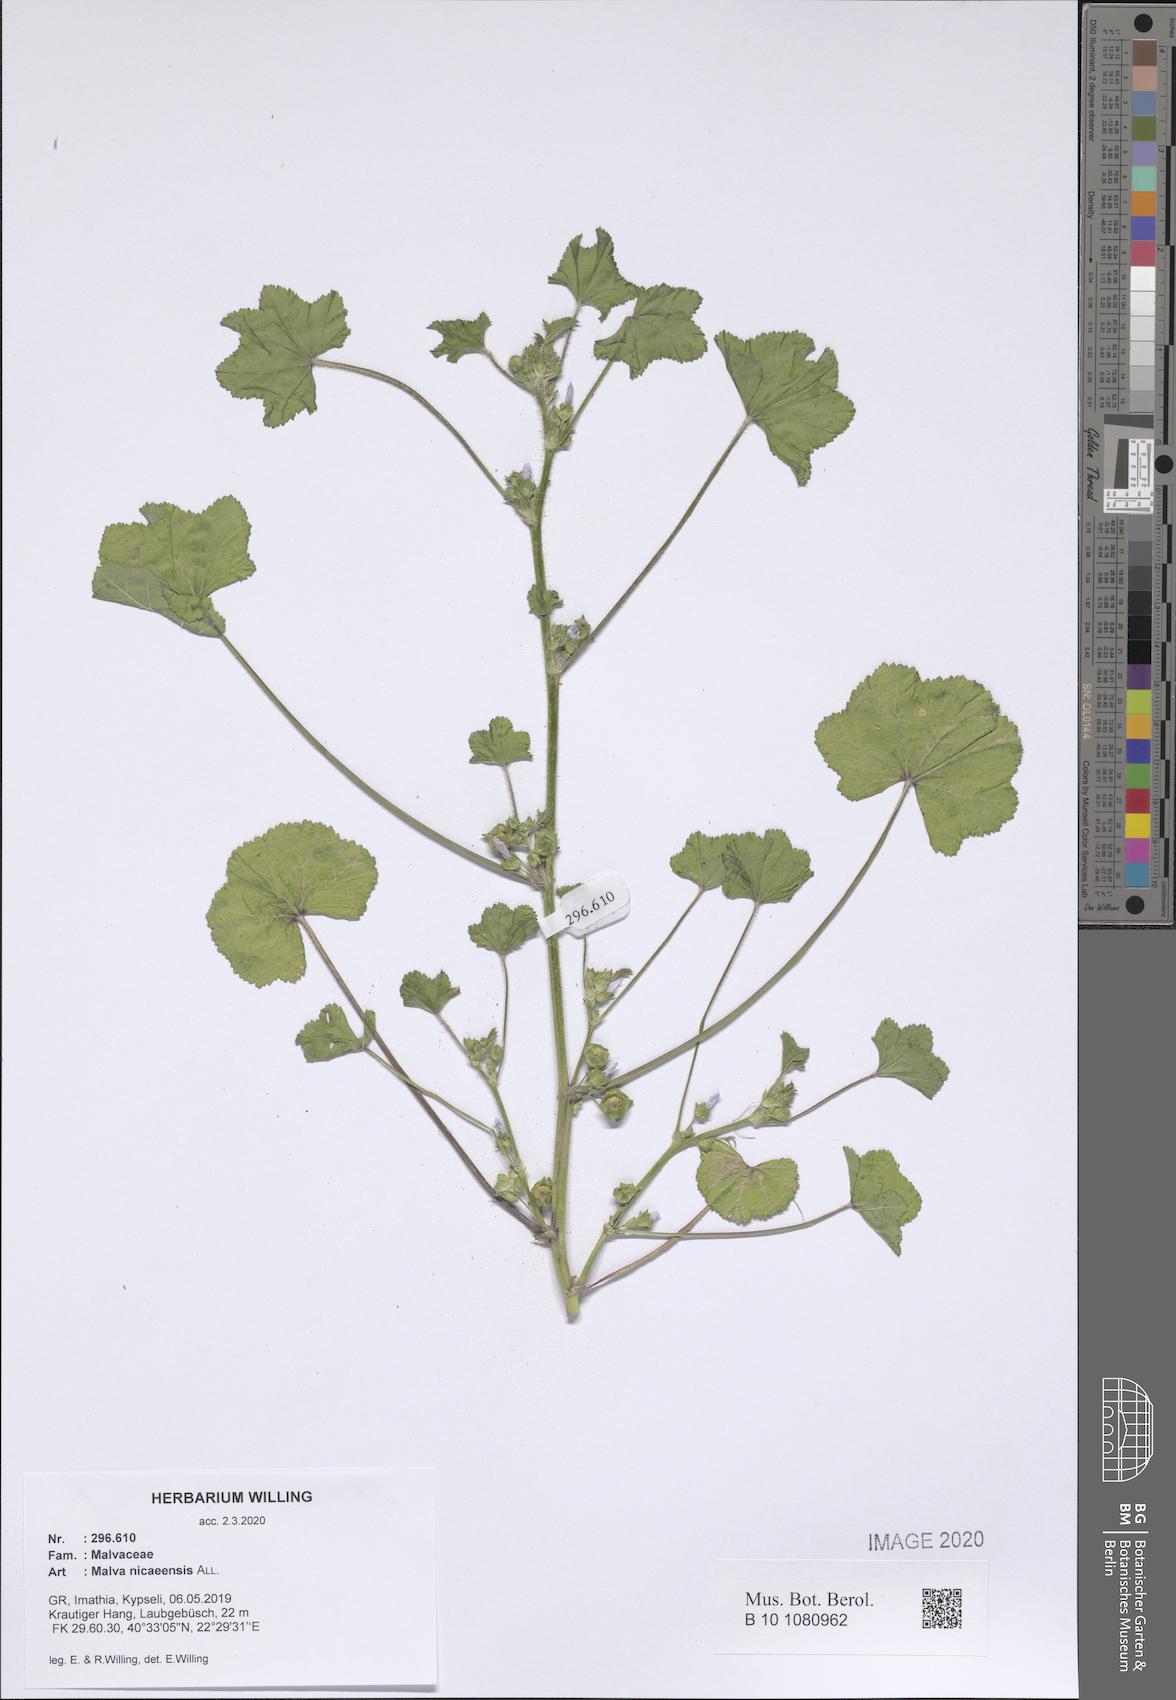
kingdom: Plantae
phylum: Tracheophyta
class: Magnoliopsida
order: Malvales
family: Malvaceae
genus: Malva
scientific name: Malva nicaeensis
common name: French mallow
